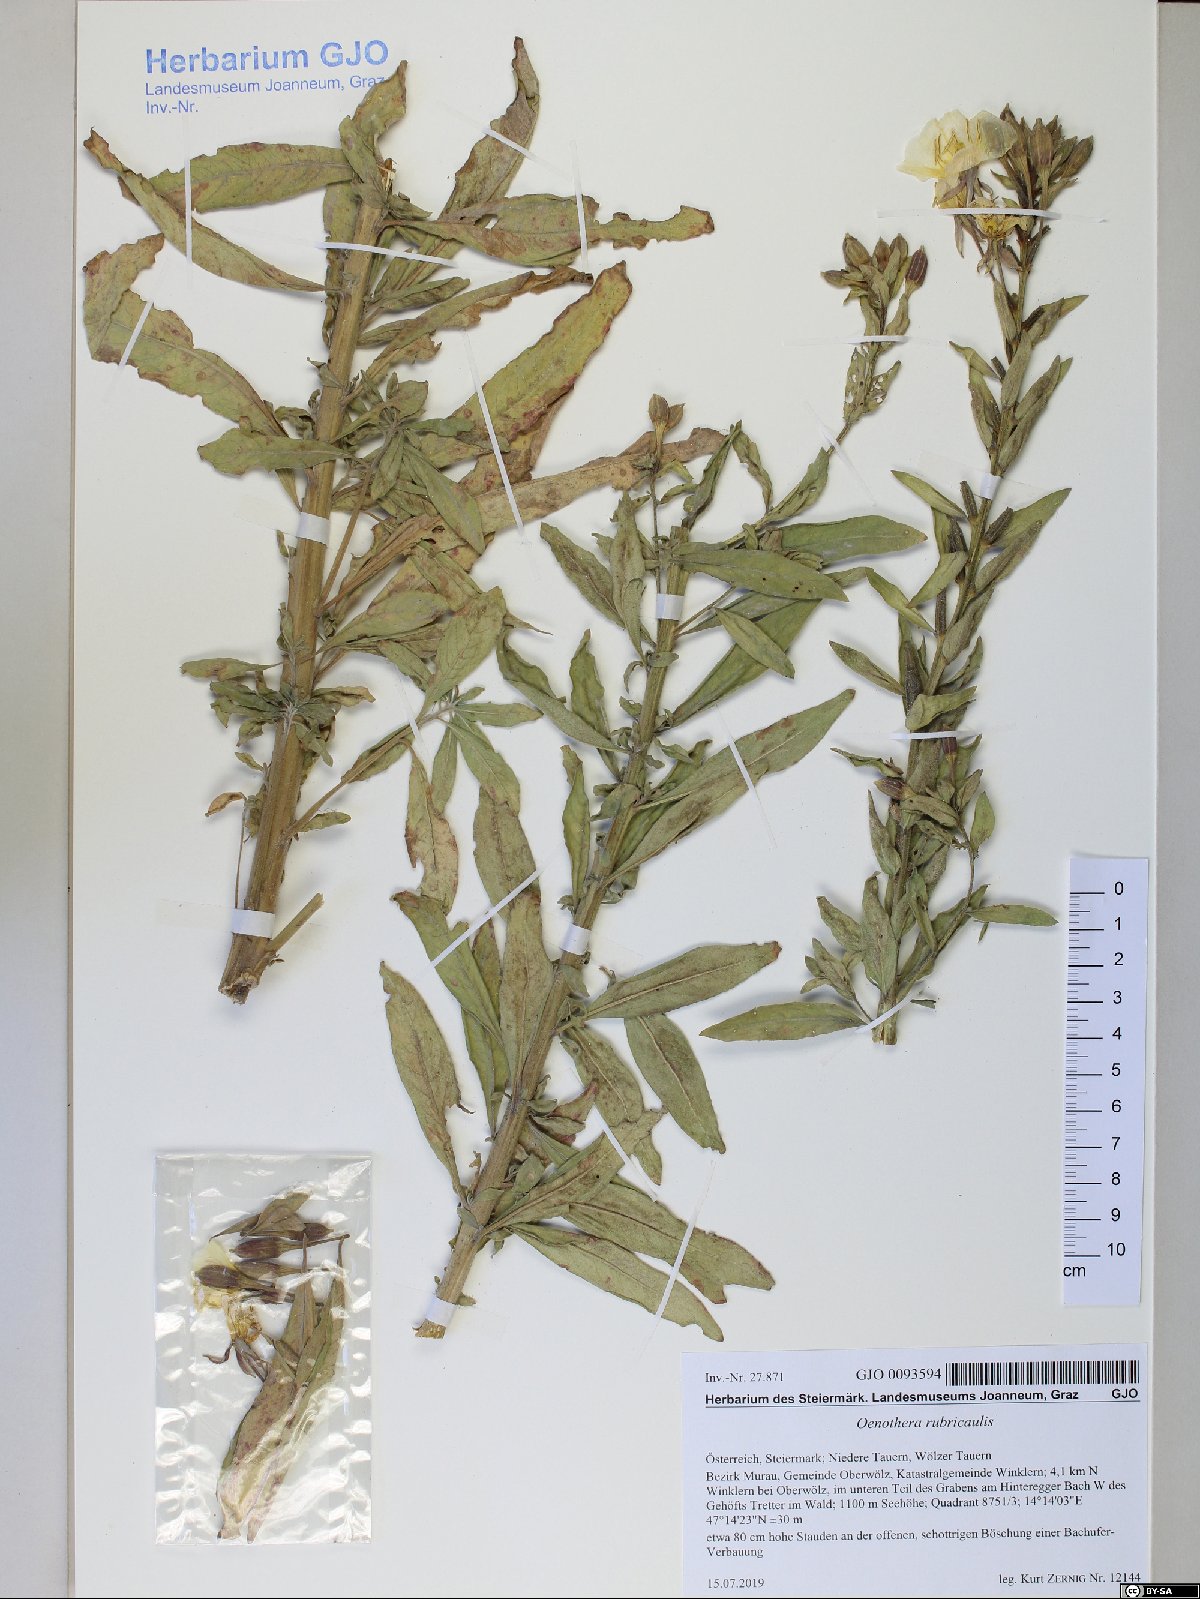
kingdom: Plantae
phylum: Tracheophyta
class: Magnoliopsida
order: Myrtales
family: Onagraceae
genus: Oenothera
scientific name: Oenothera rubricaulis
